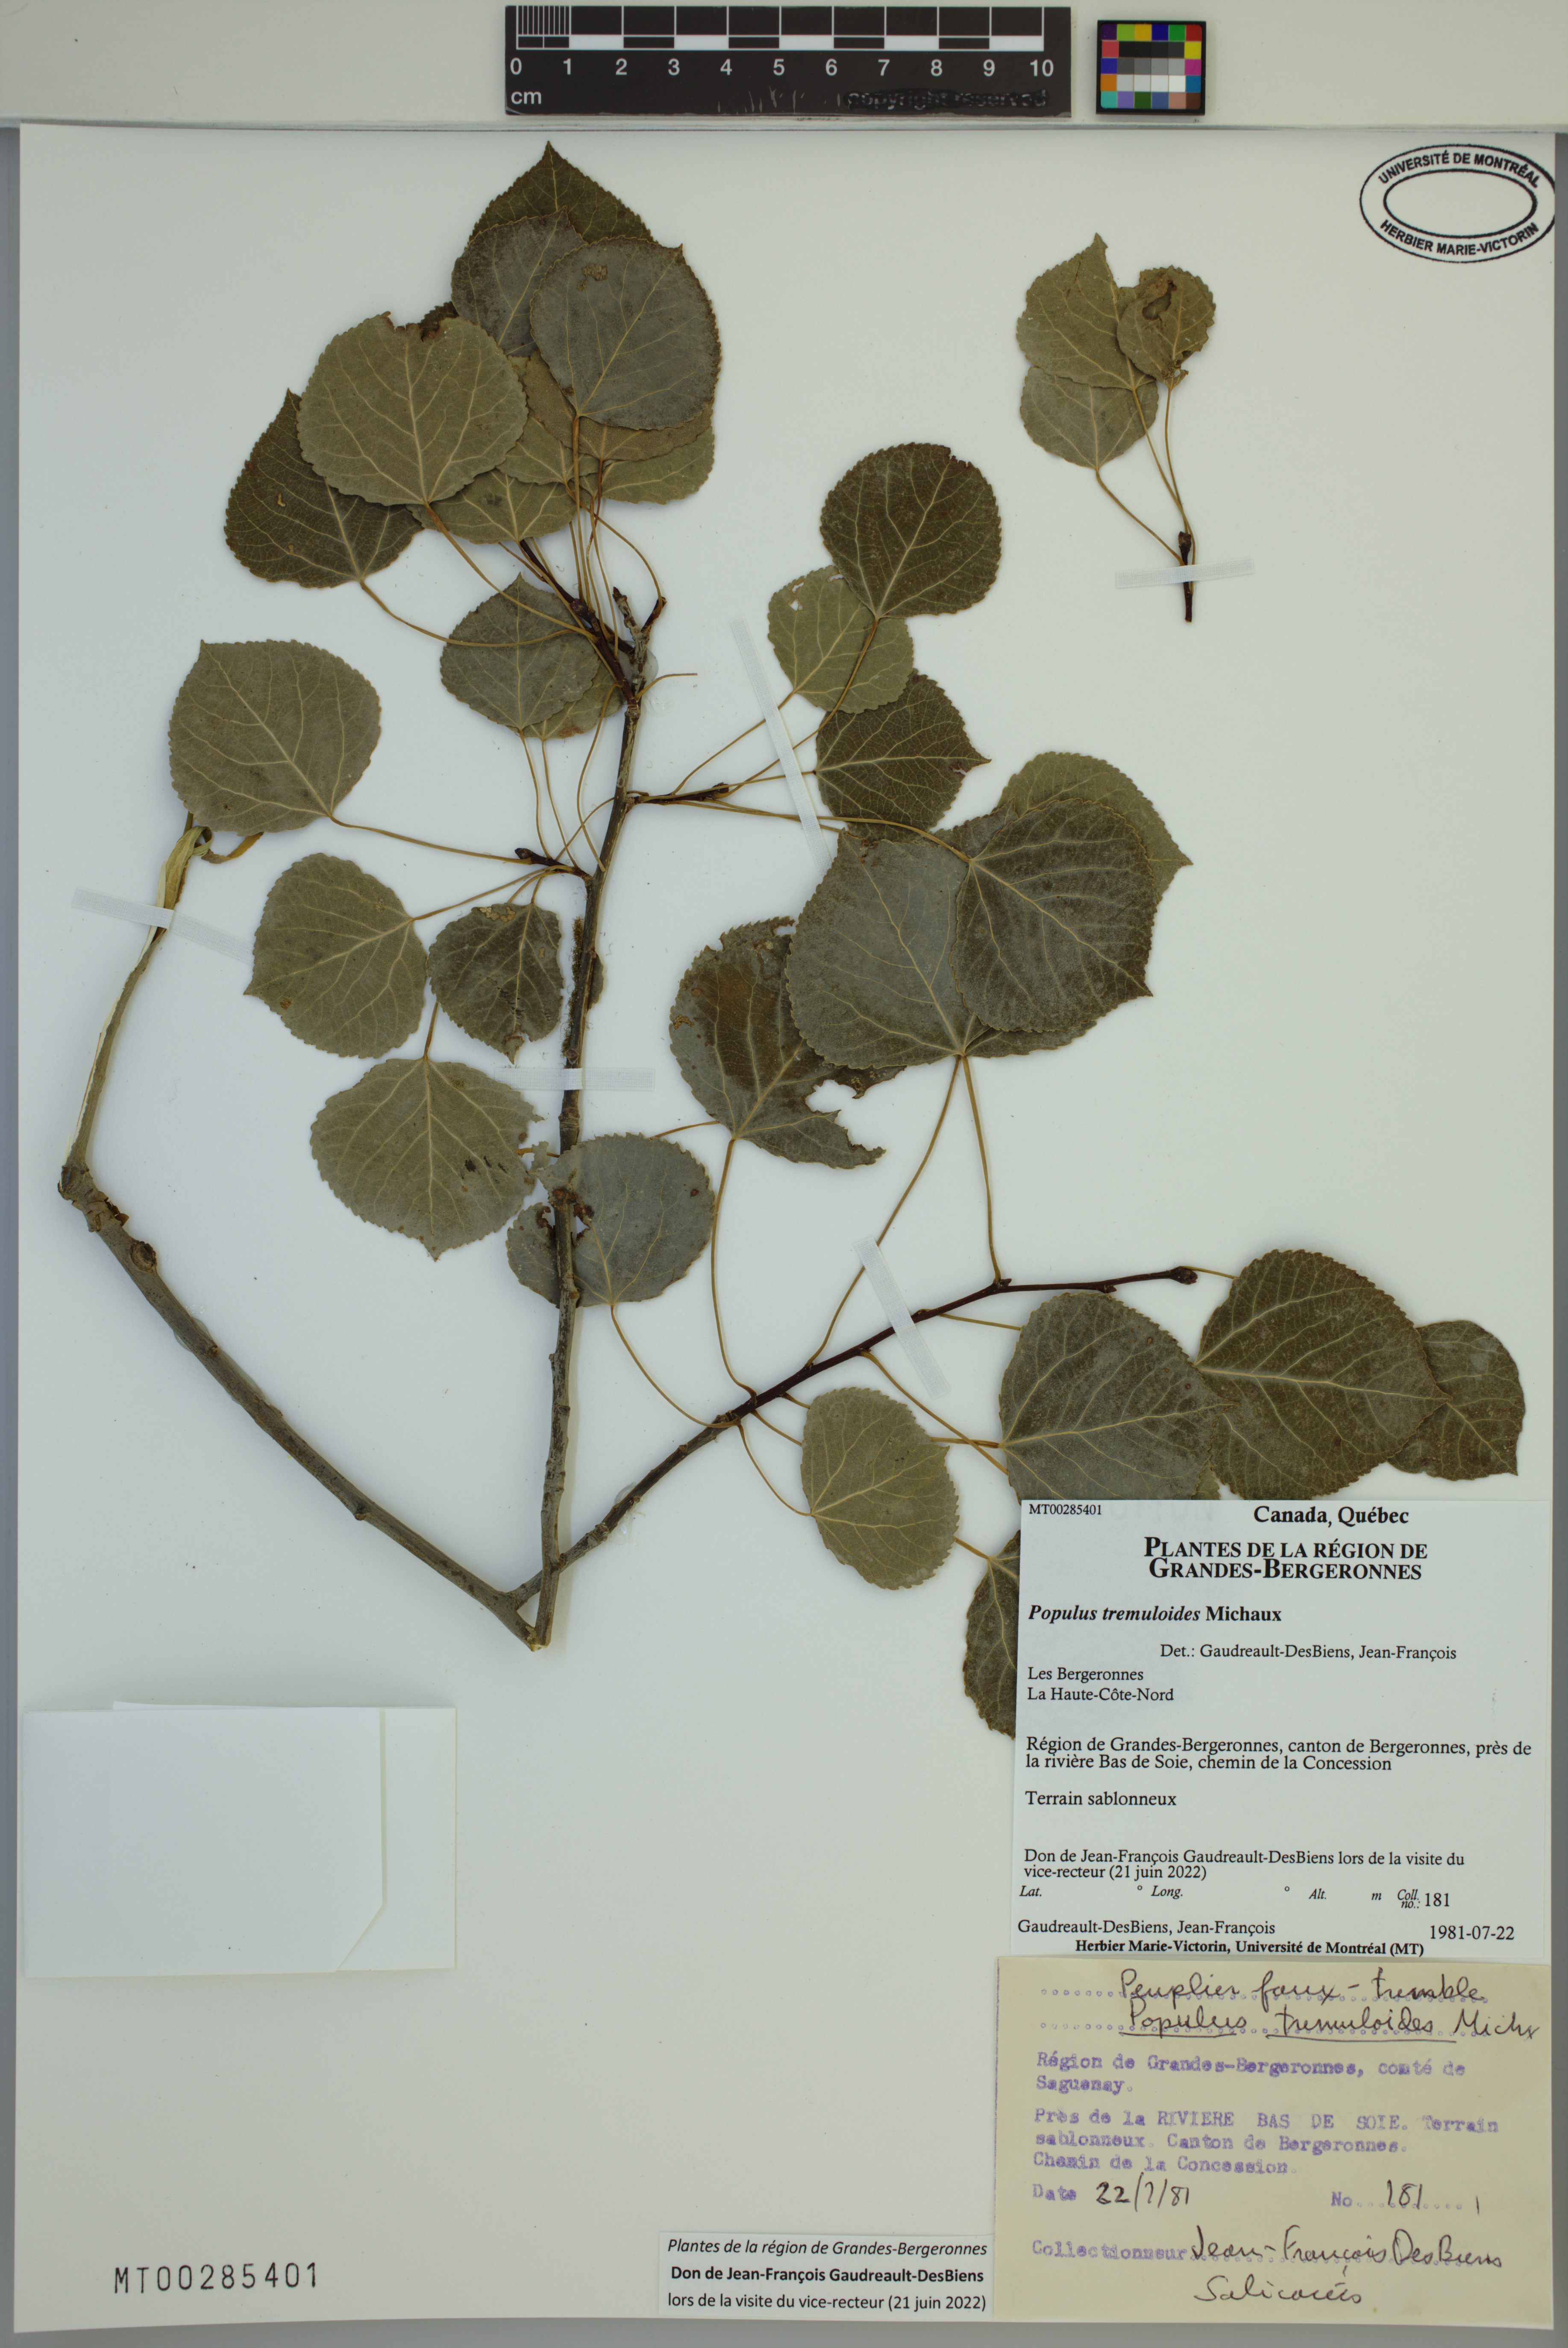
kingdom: Plantae
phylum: Tracheophyta
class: Magnoliopsida
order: Malpighiales
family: Salicaceae
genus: Populus
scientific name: Populus tremuloides
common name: Quaking aspen
